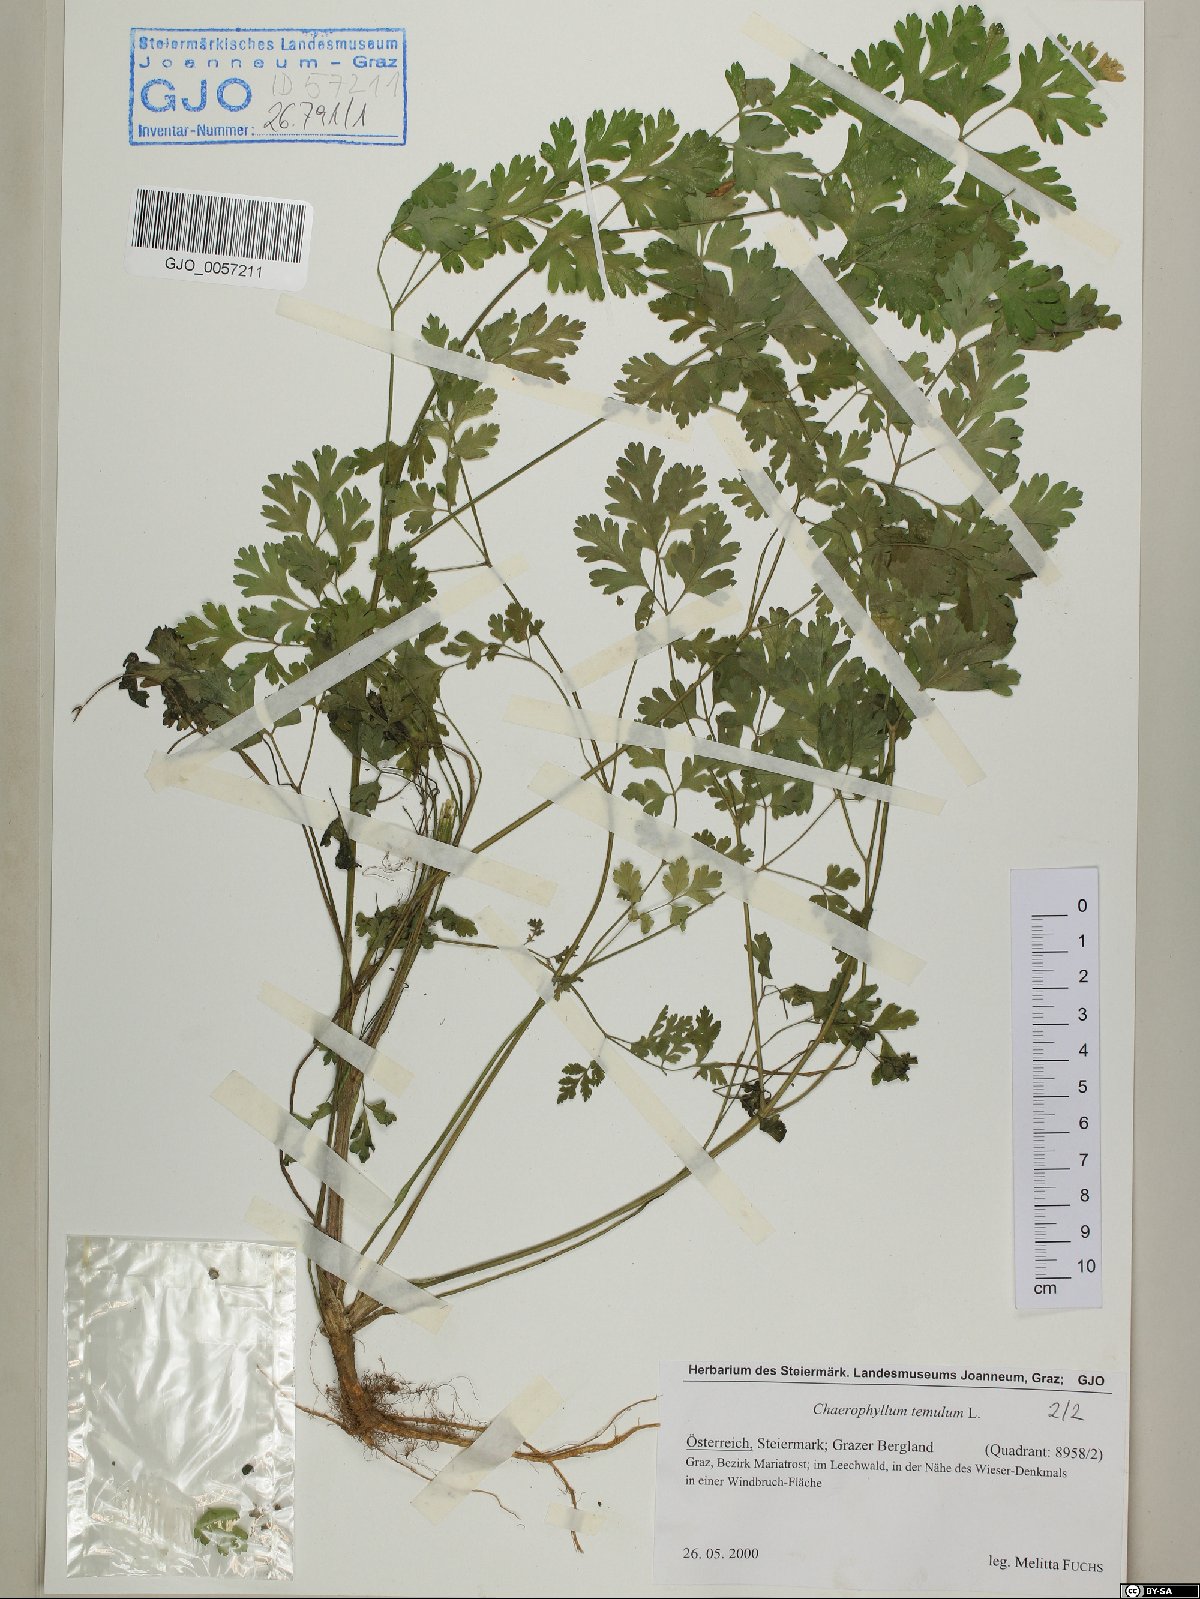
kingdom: Plantae
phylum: Tracheophyta
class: Magnoliopsida
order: Apiales
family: Apiaceae
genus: Chaerophyllum
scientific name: Chaerophyllum temulum
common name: Rough chervil
